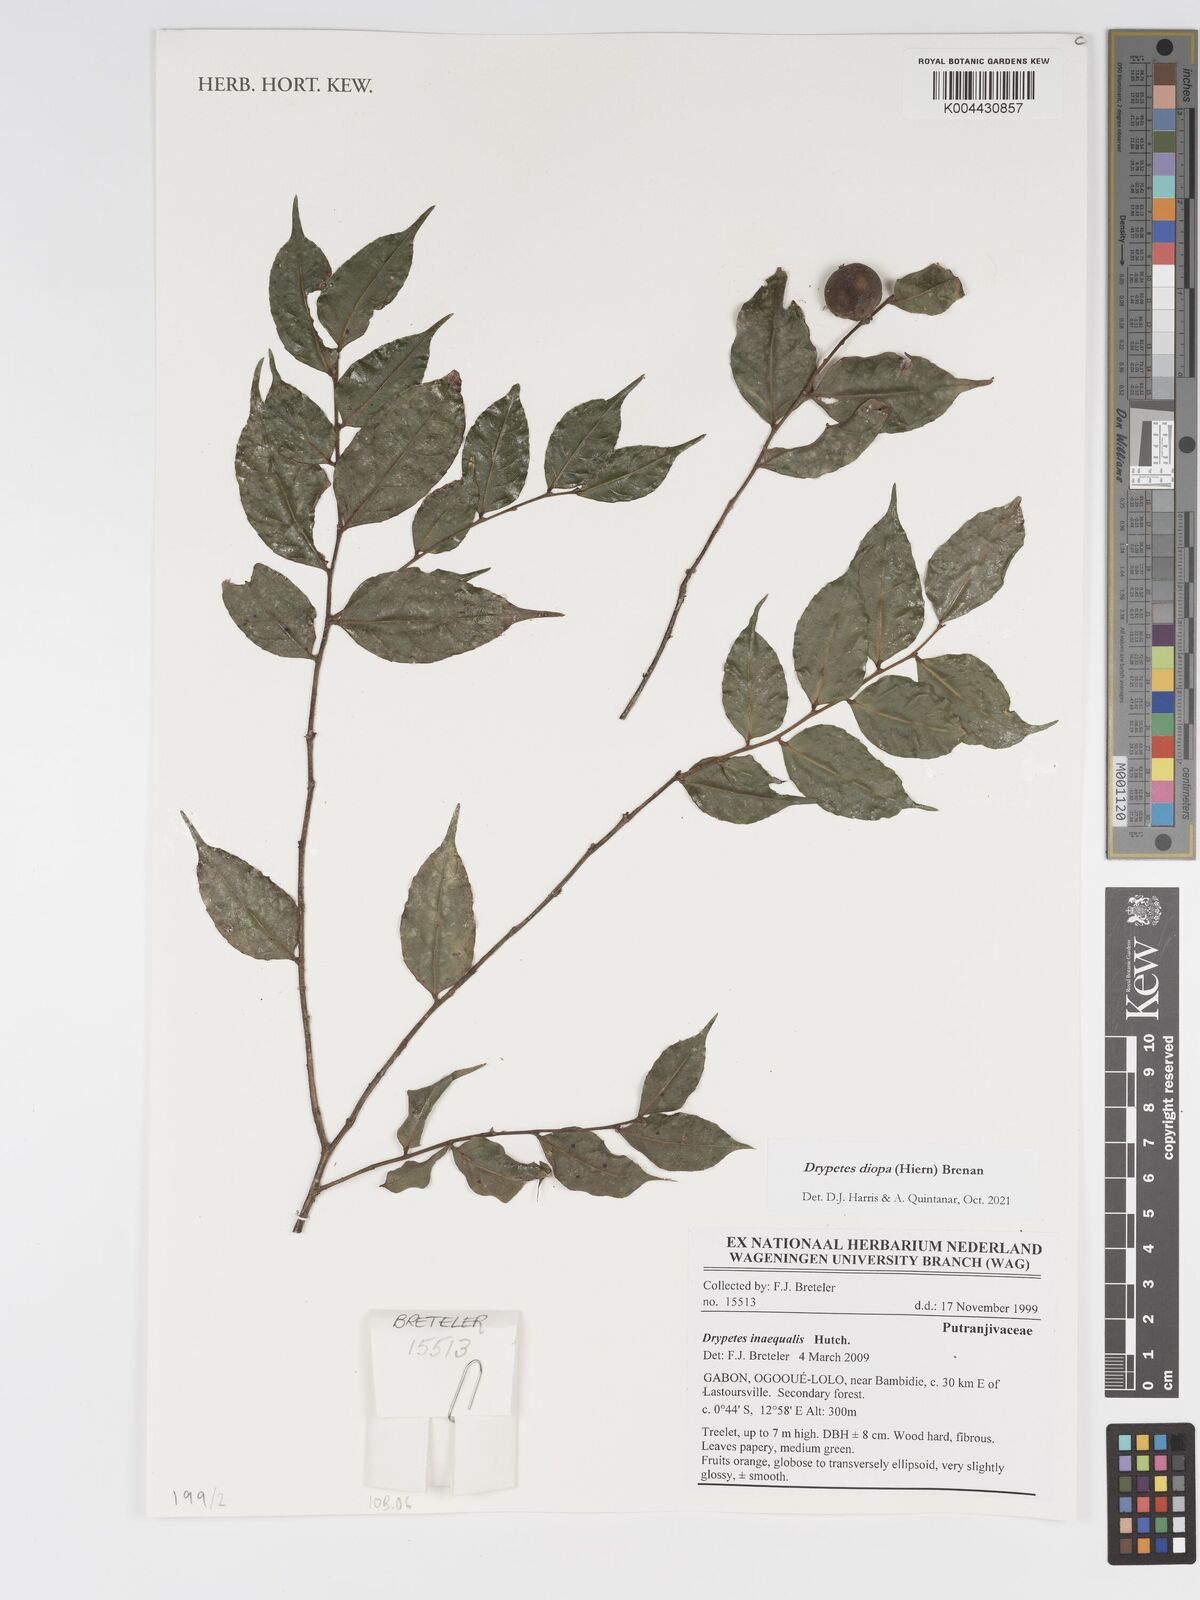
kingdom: Plantae
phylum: Tracheophyta
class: Magnoliopsida
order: Malpighiales
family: Putranjivaceae
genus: Drypetes
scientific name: Drypetes diopa
